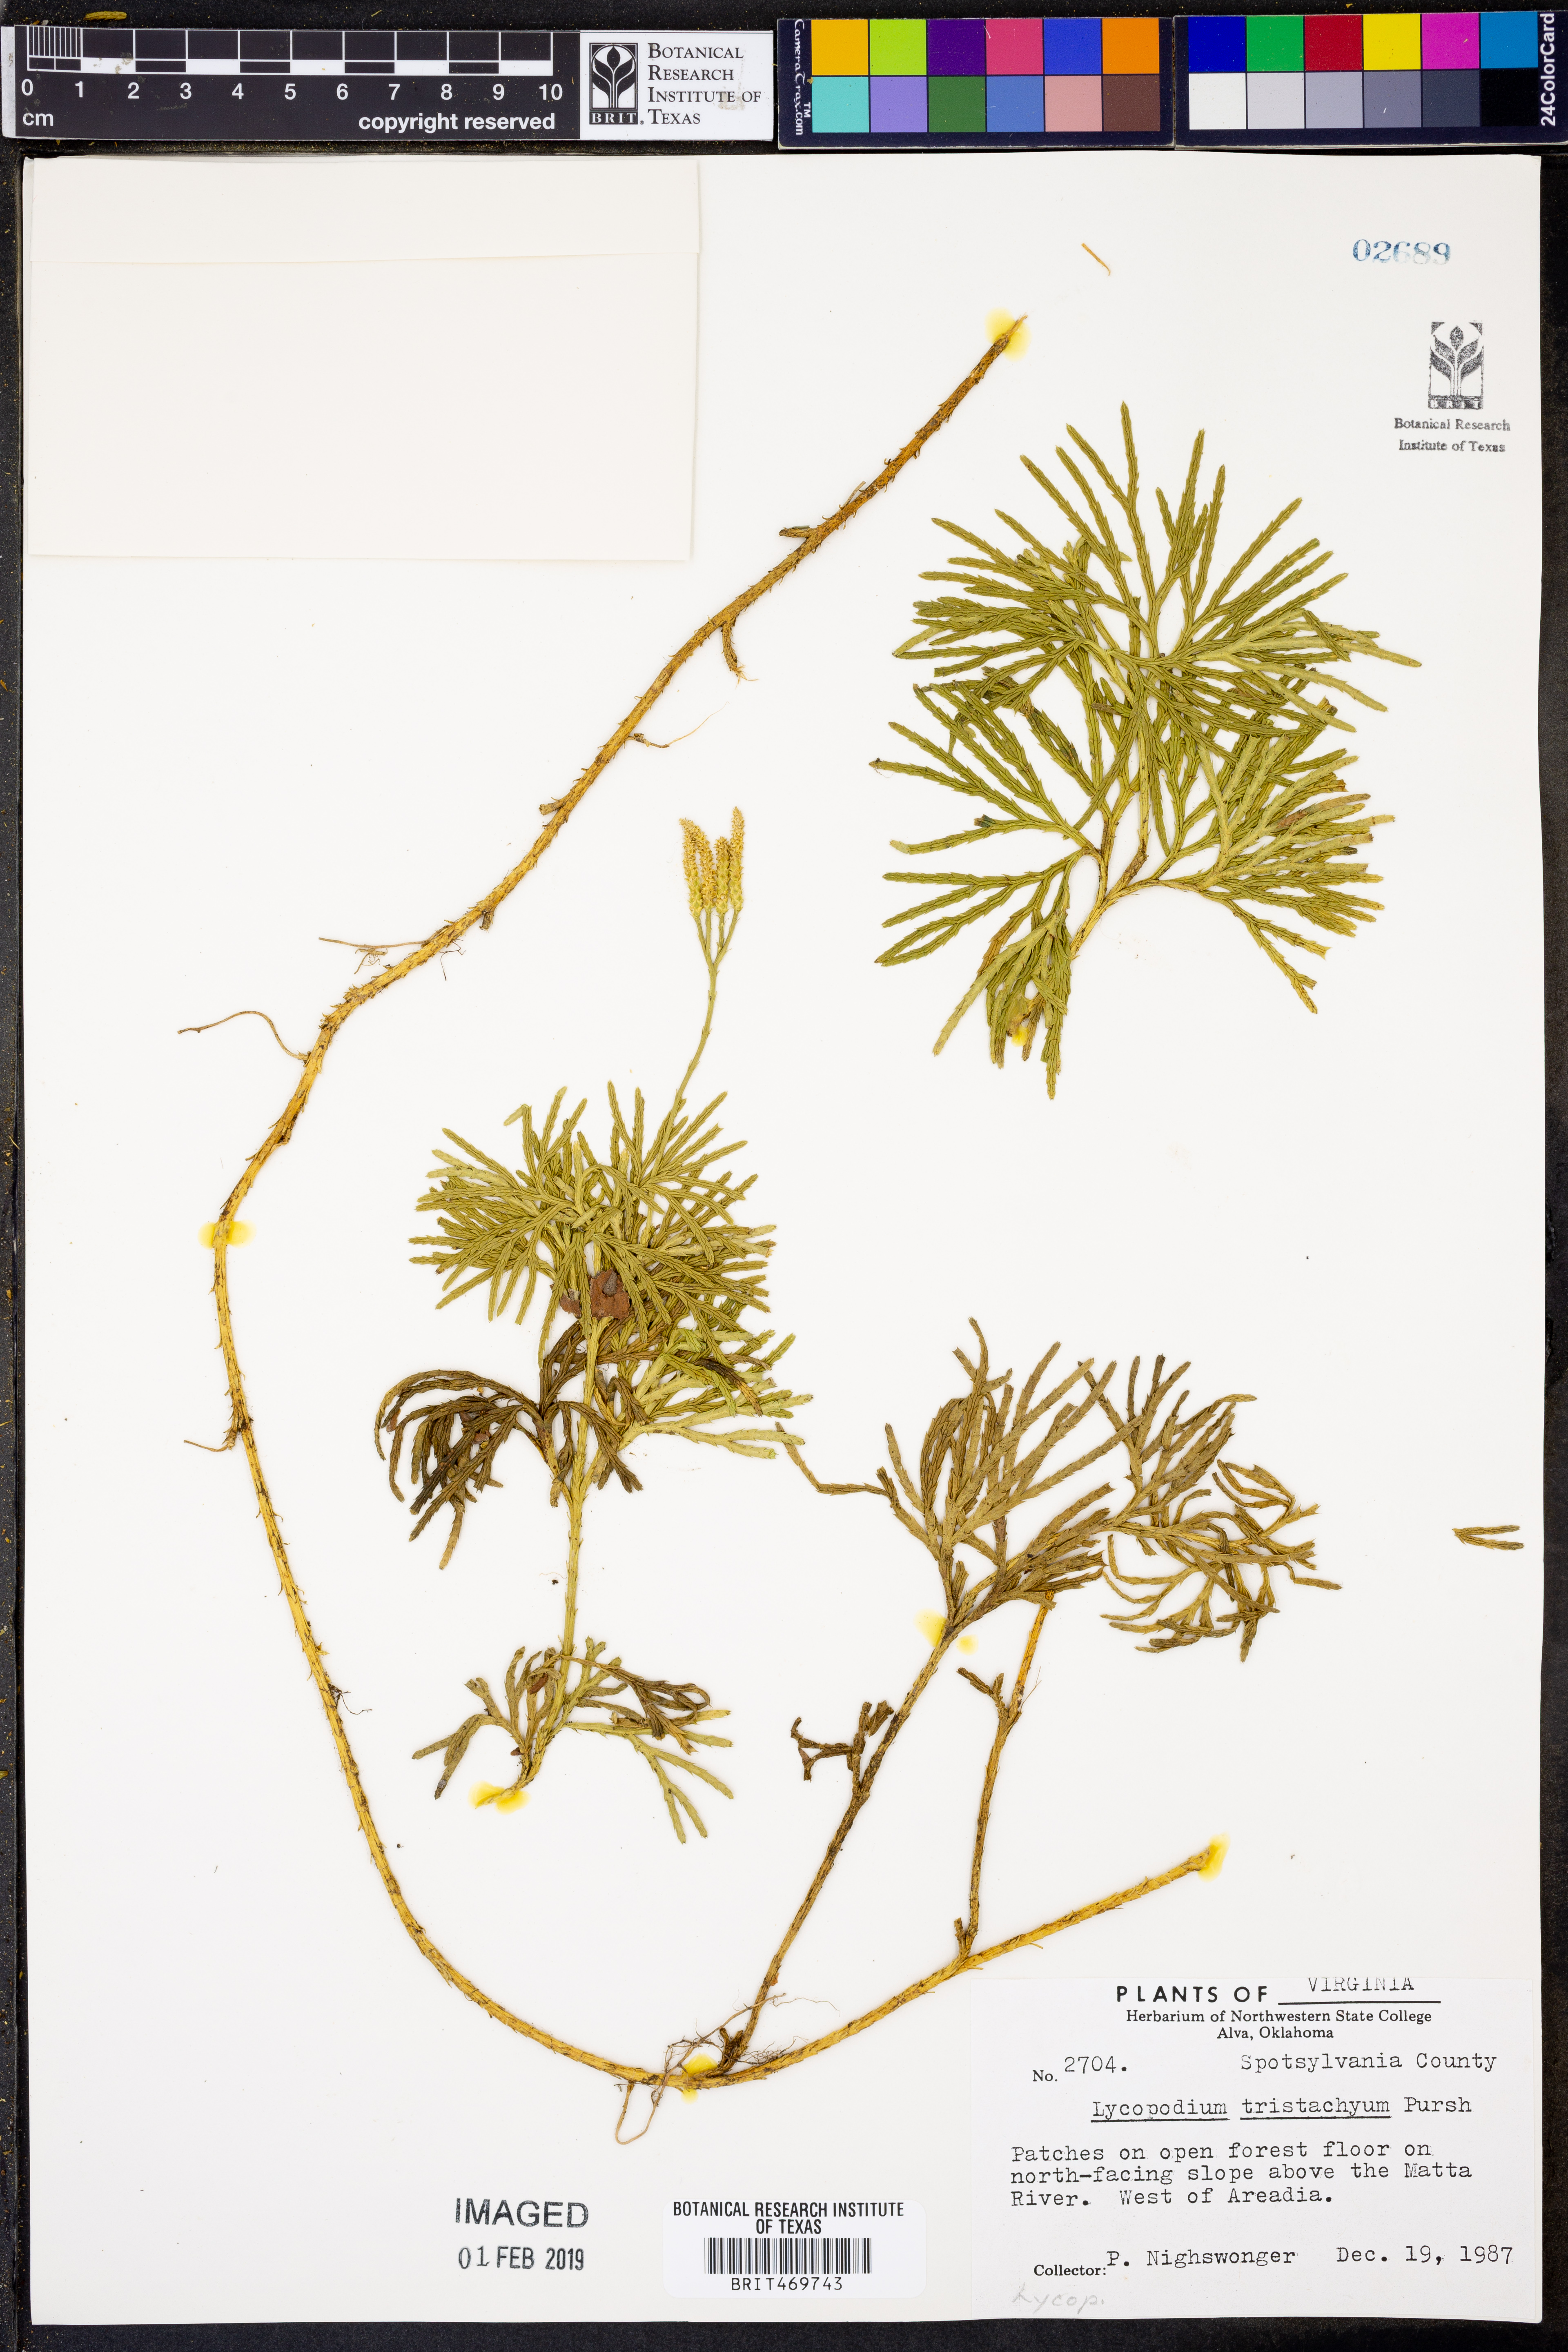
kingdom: Plantae
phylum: Tracheophyta
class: Lycopodiopsida
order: Lycopodiales
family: Lycopodiaceae
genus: Diphasiastrum
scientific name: Diphasiastrum tristachyum
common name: Blue ground-cedar
